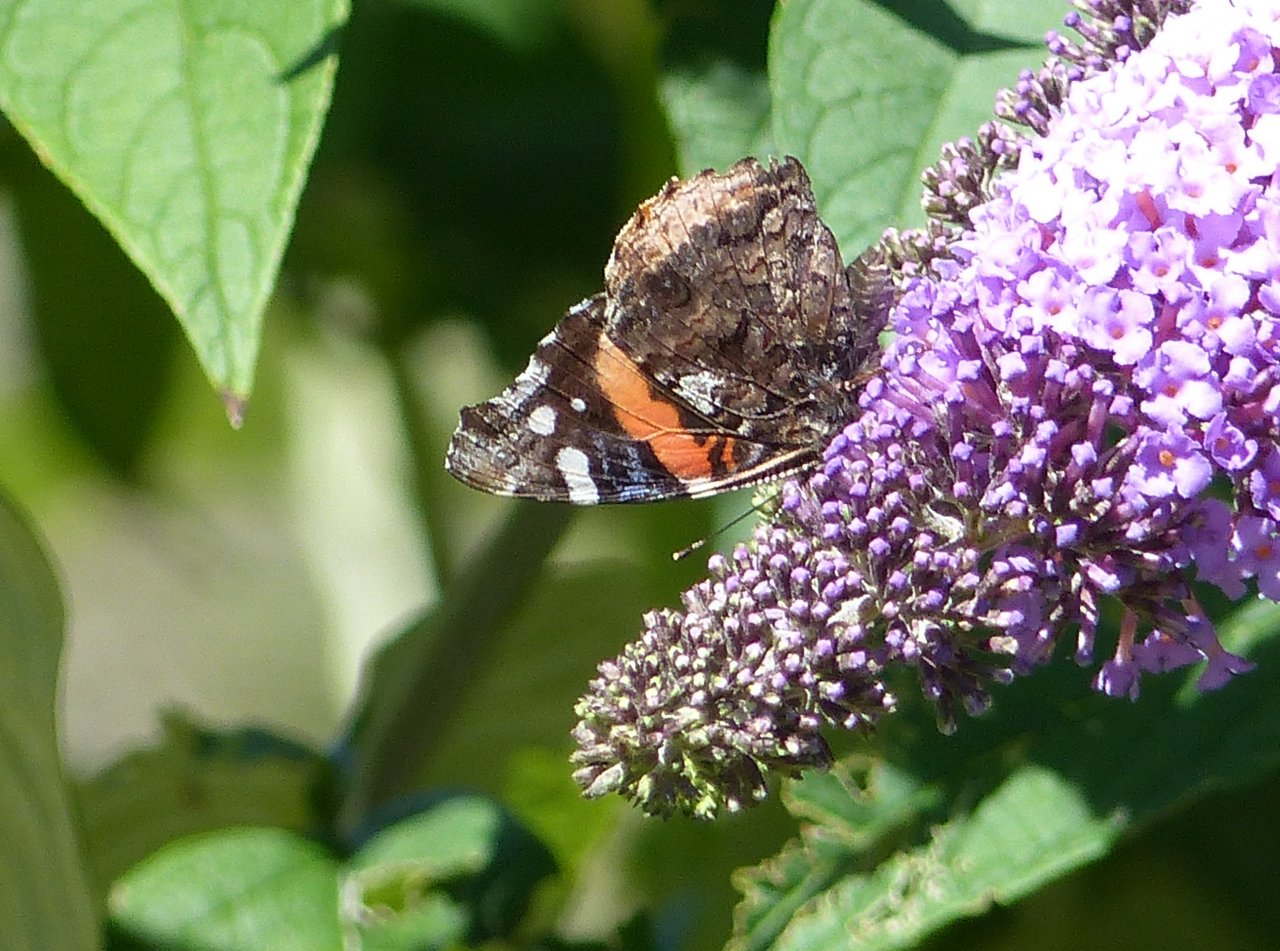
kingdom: Animalia
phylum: Arthropoda
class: Insecta
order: Lepidoptera
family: Nymphalidae
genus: Vanessa
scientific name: Vanessa atalanta
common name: Red Admiral
